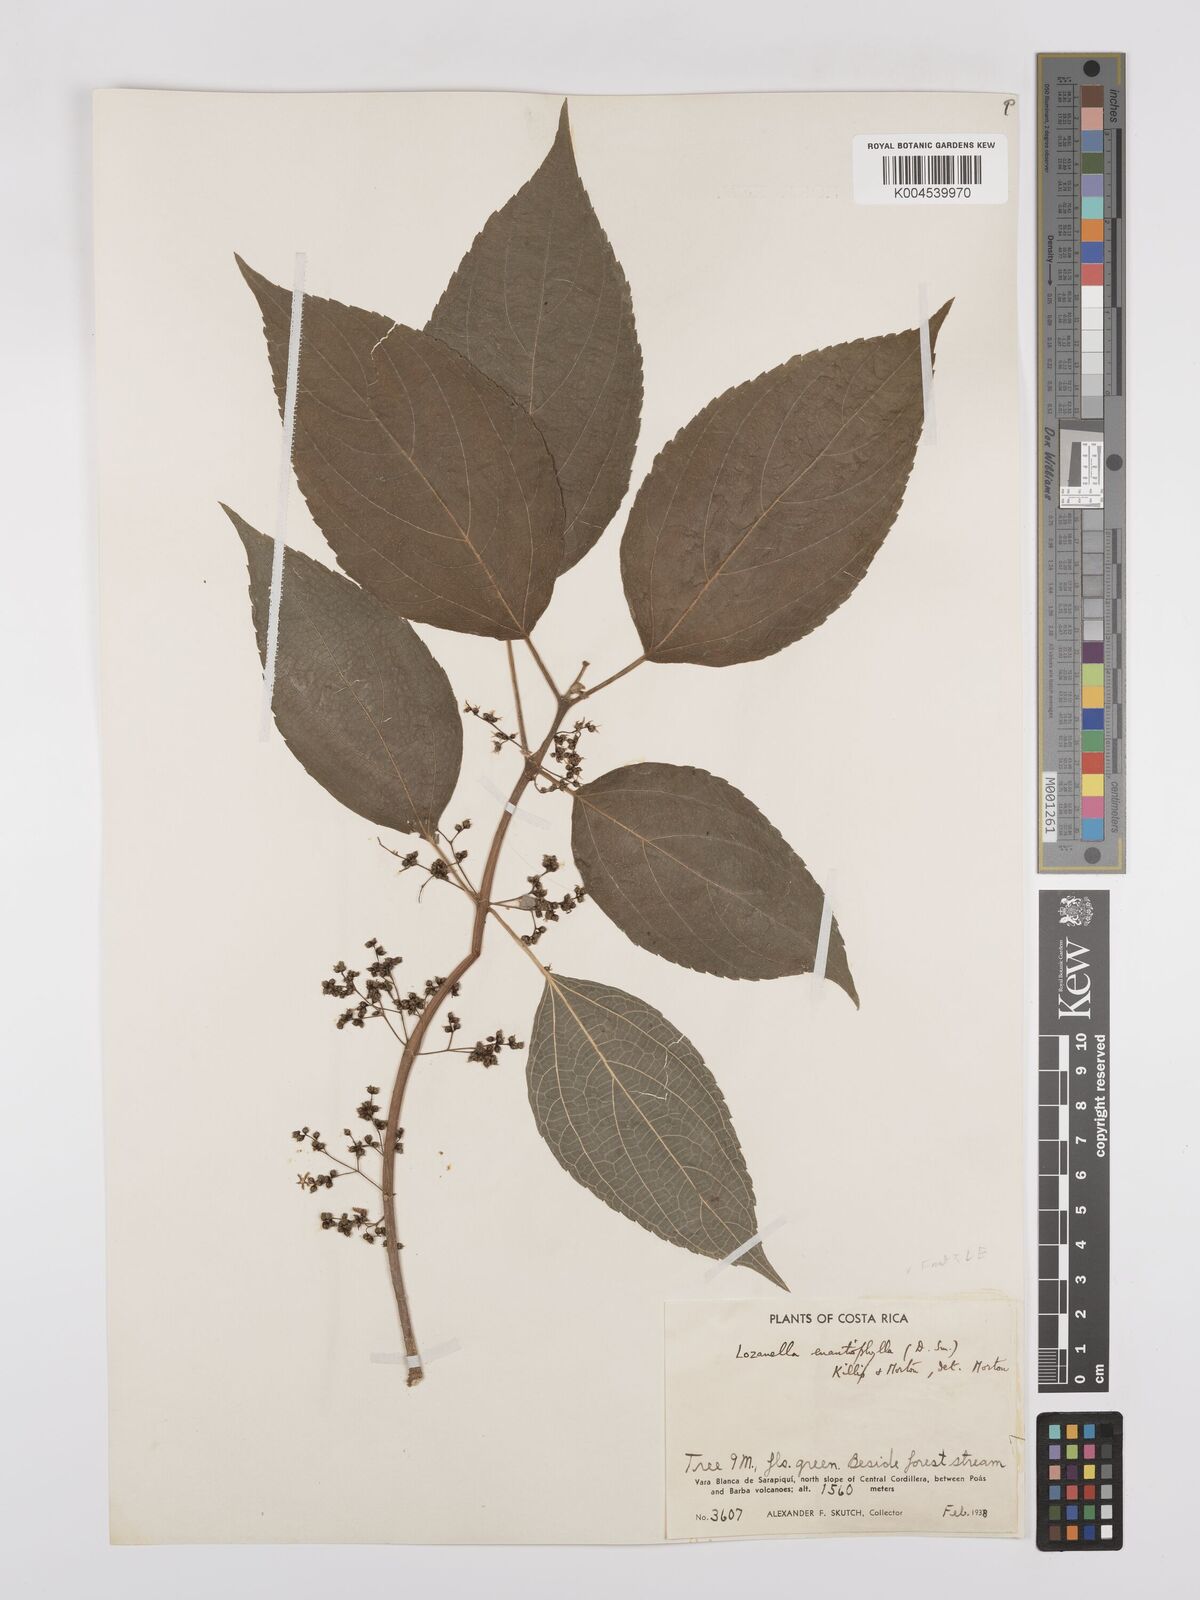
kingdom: Plantae
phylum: Tracheophyta
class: Magnoliopsida
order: Rosales
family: Cannabaceae
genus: Lozanella
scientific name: Lozanella enantiophylla
